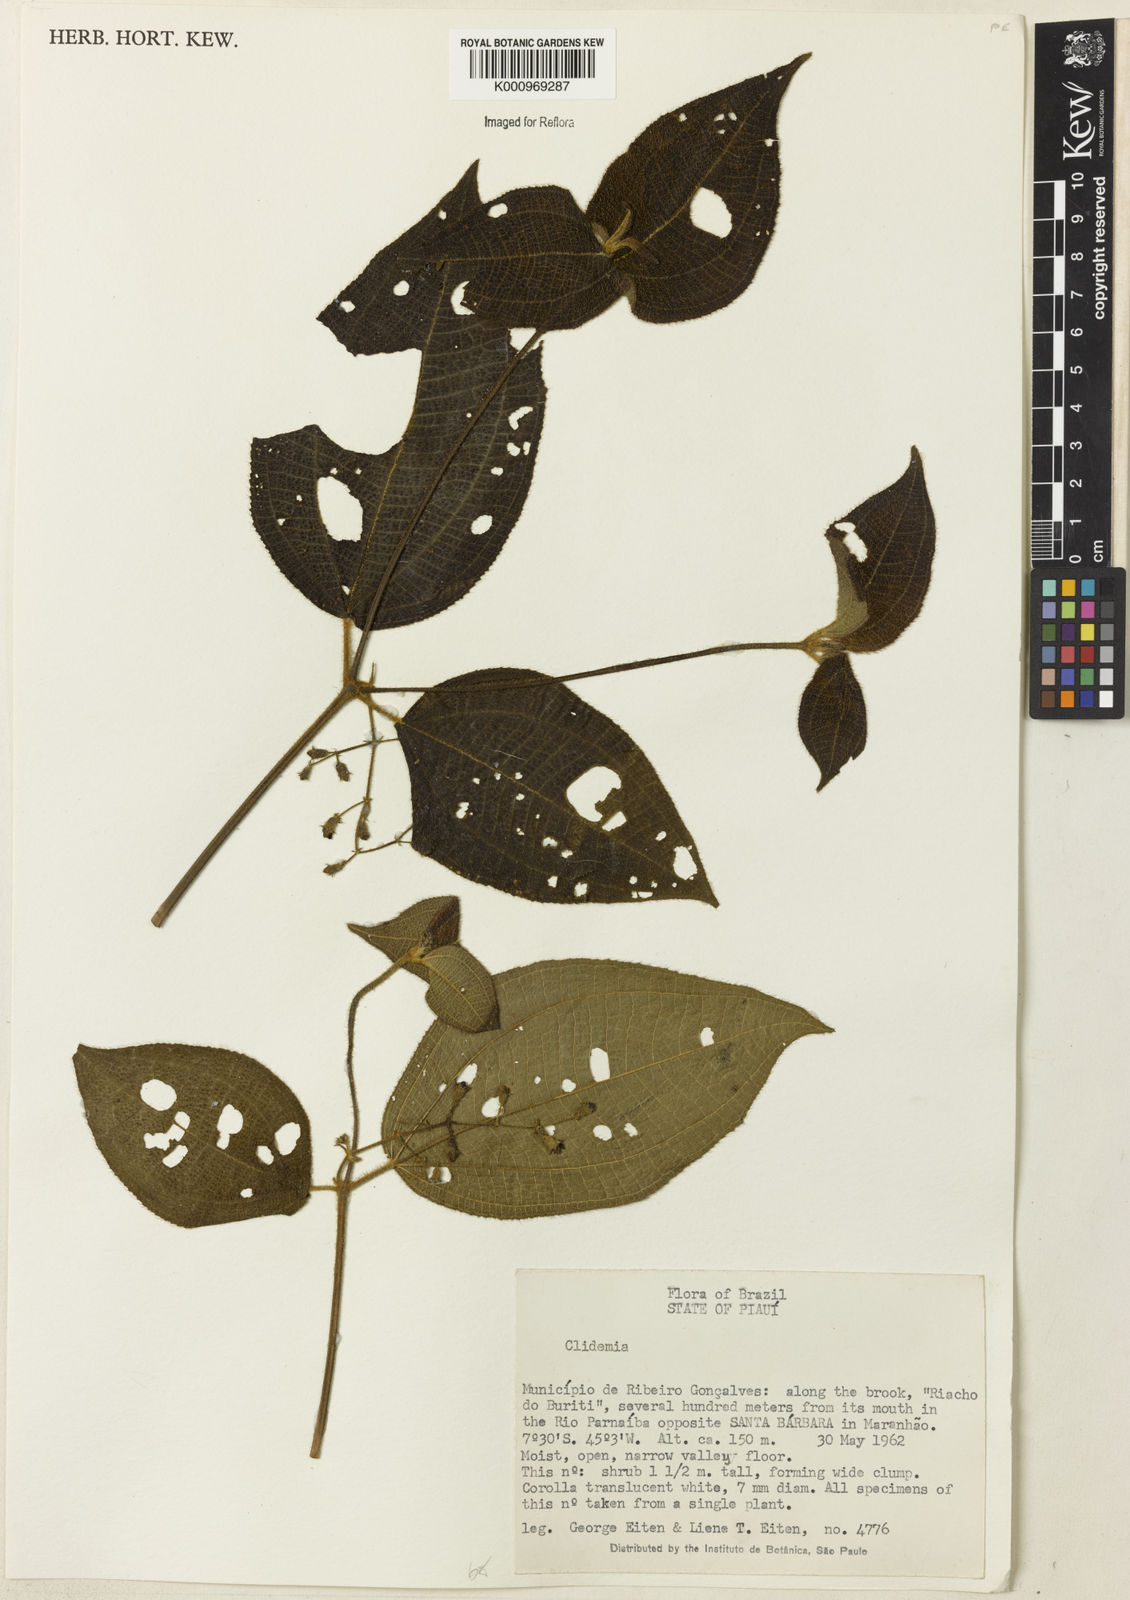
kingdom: Plantae
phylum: Tracheophyta
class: Magnoliopsida
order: Myrtales
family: Melastomataceae
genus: Miconia
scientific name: Miconia
